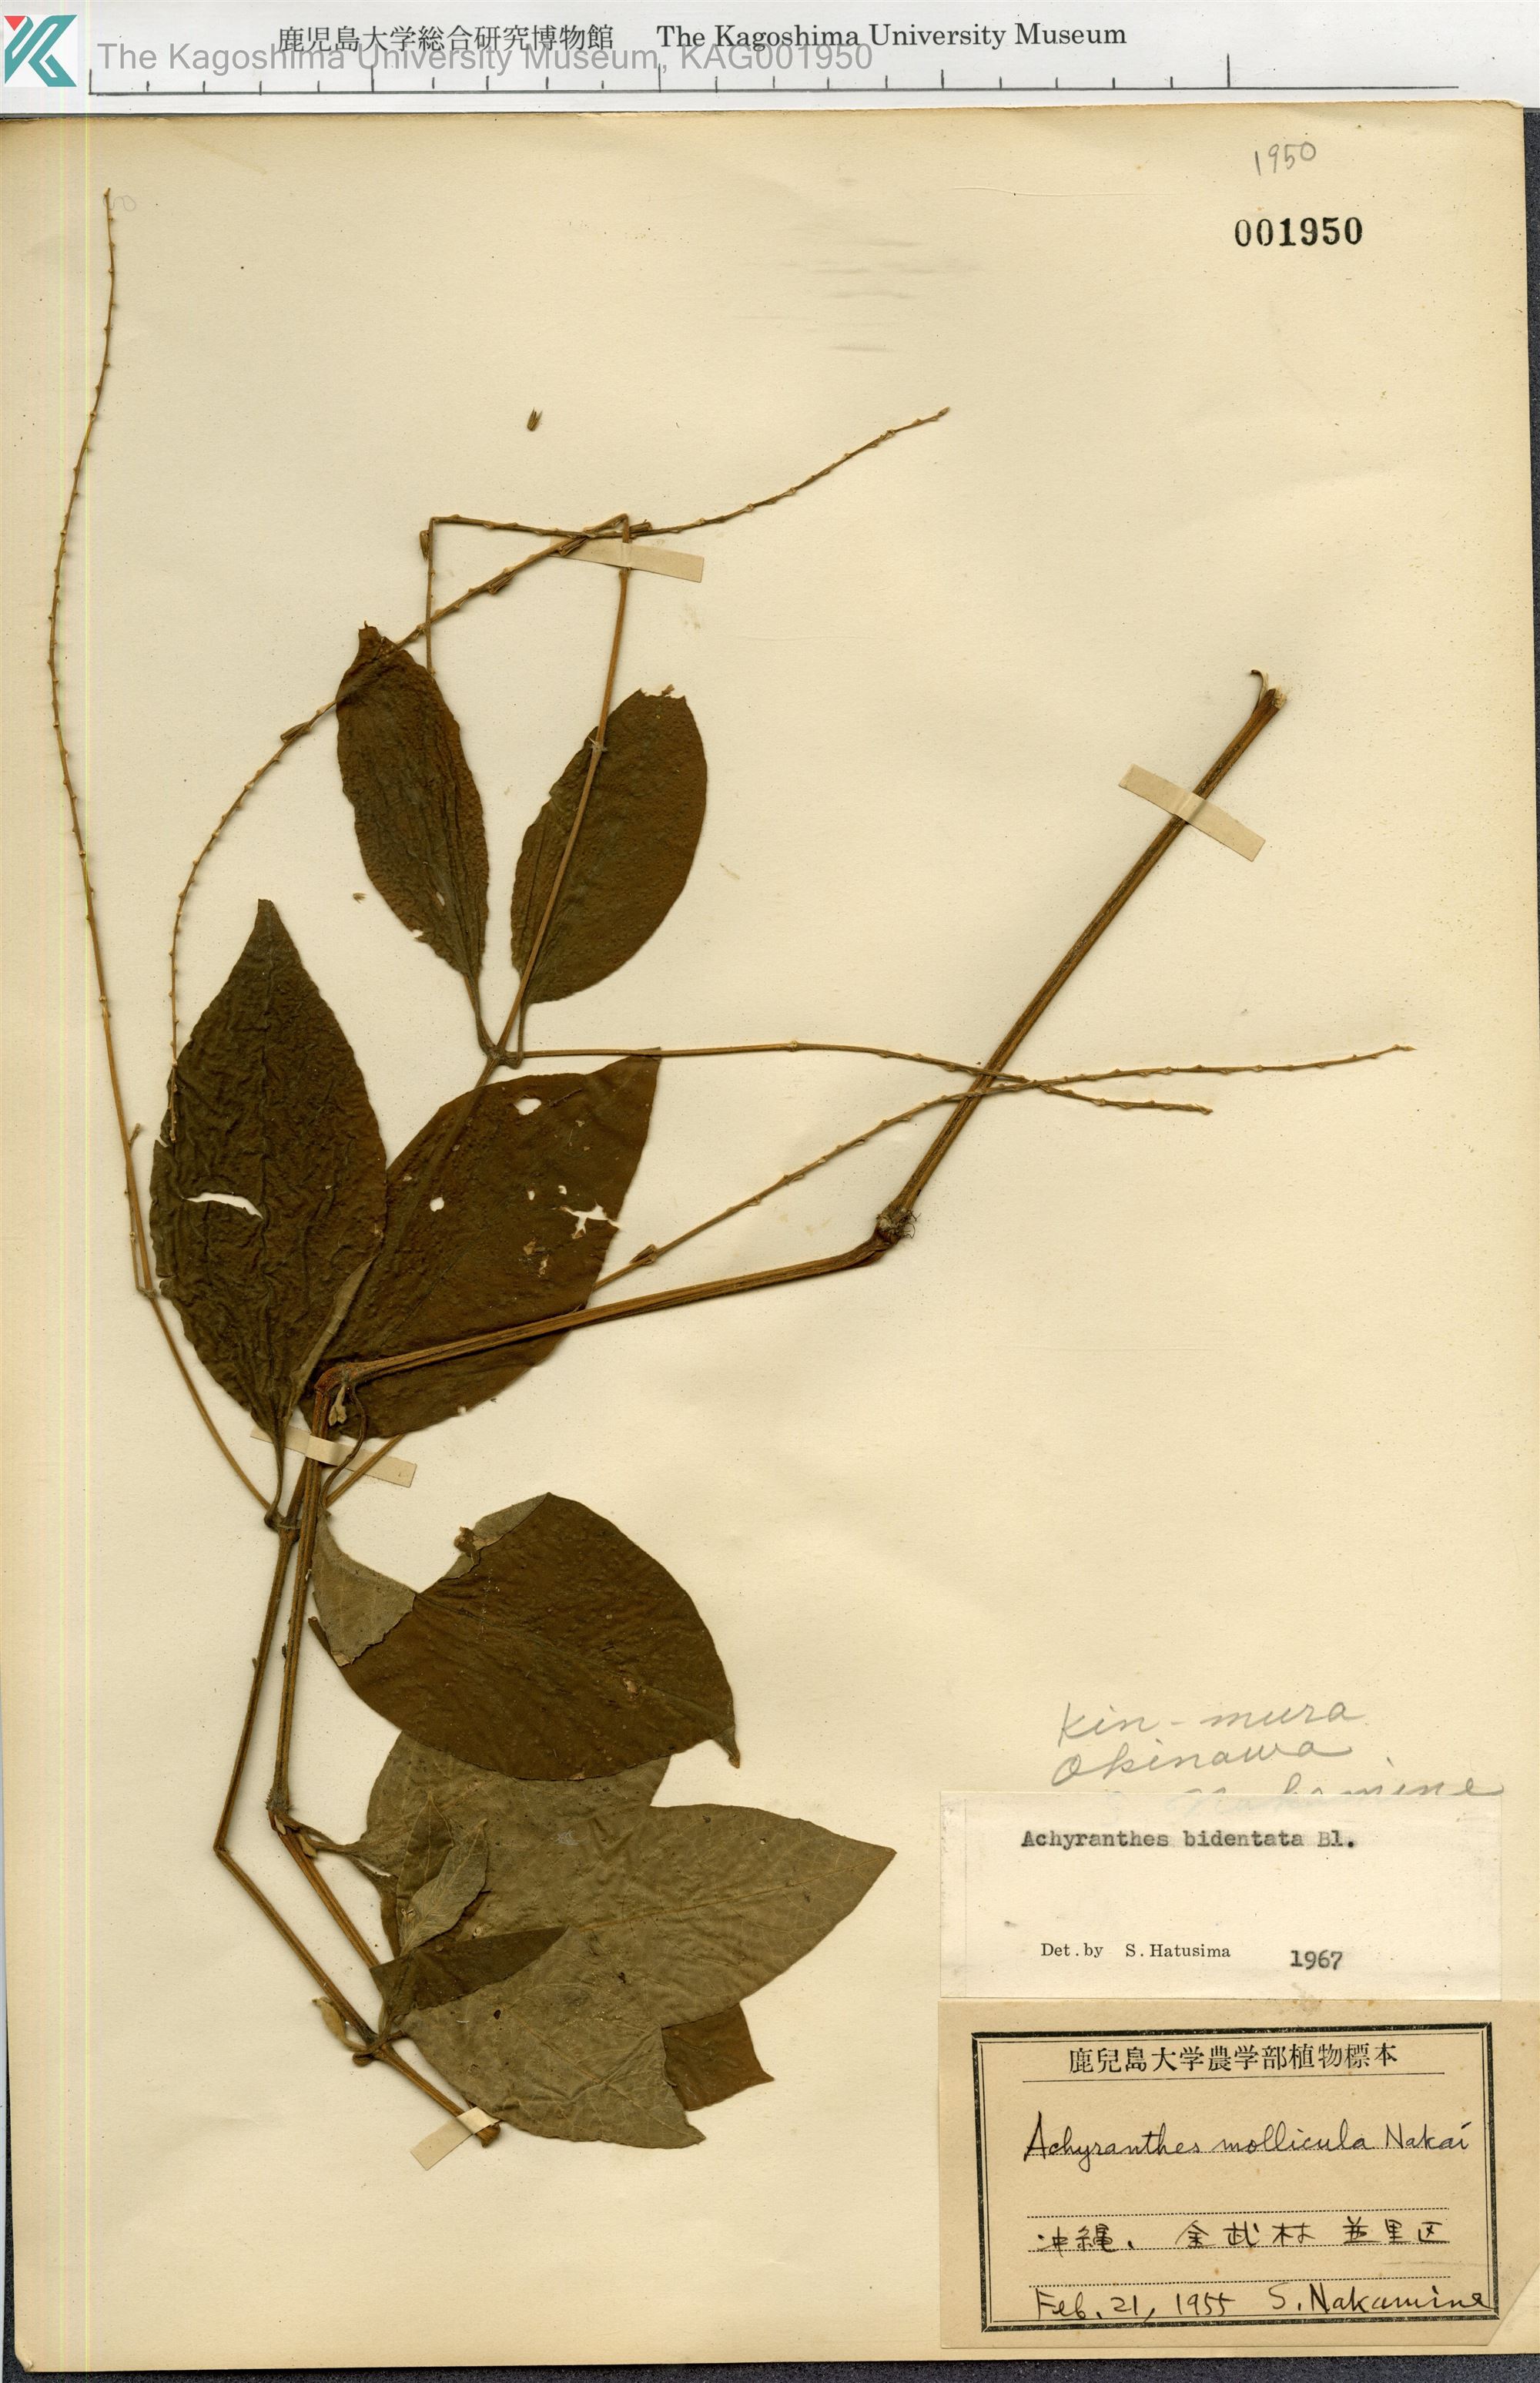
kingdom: Plantae
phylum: Tracheophyta
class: Magnoliopsida
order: Caryophyllales
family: Amaranthaceae
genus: Achyranthes
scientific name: Achyranthes bidentata
